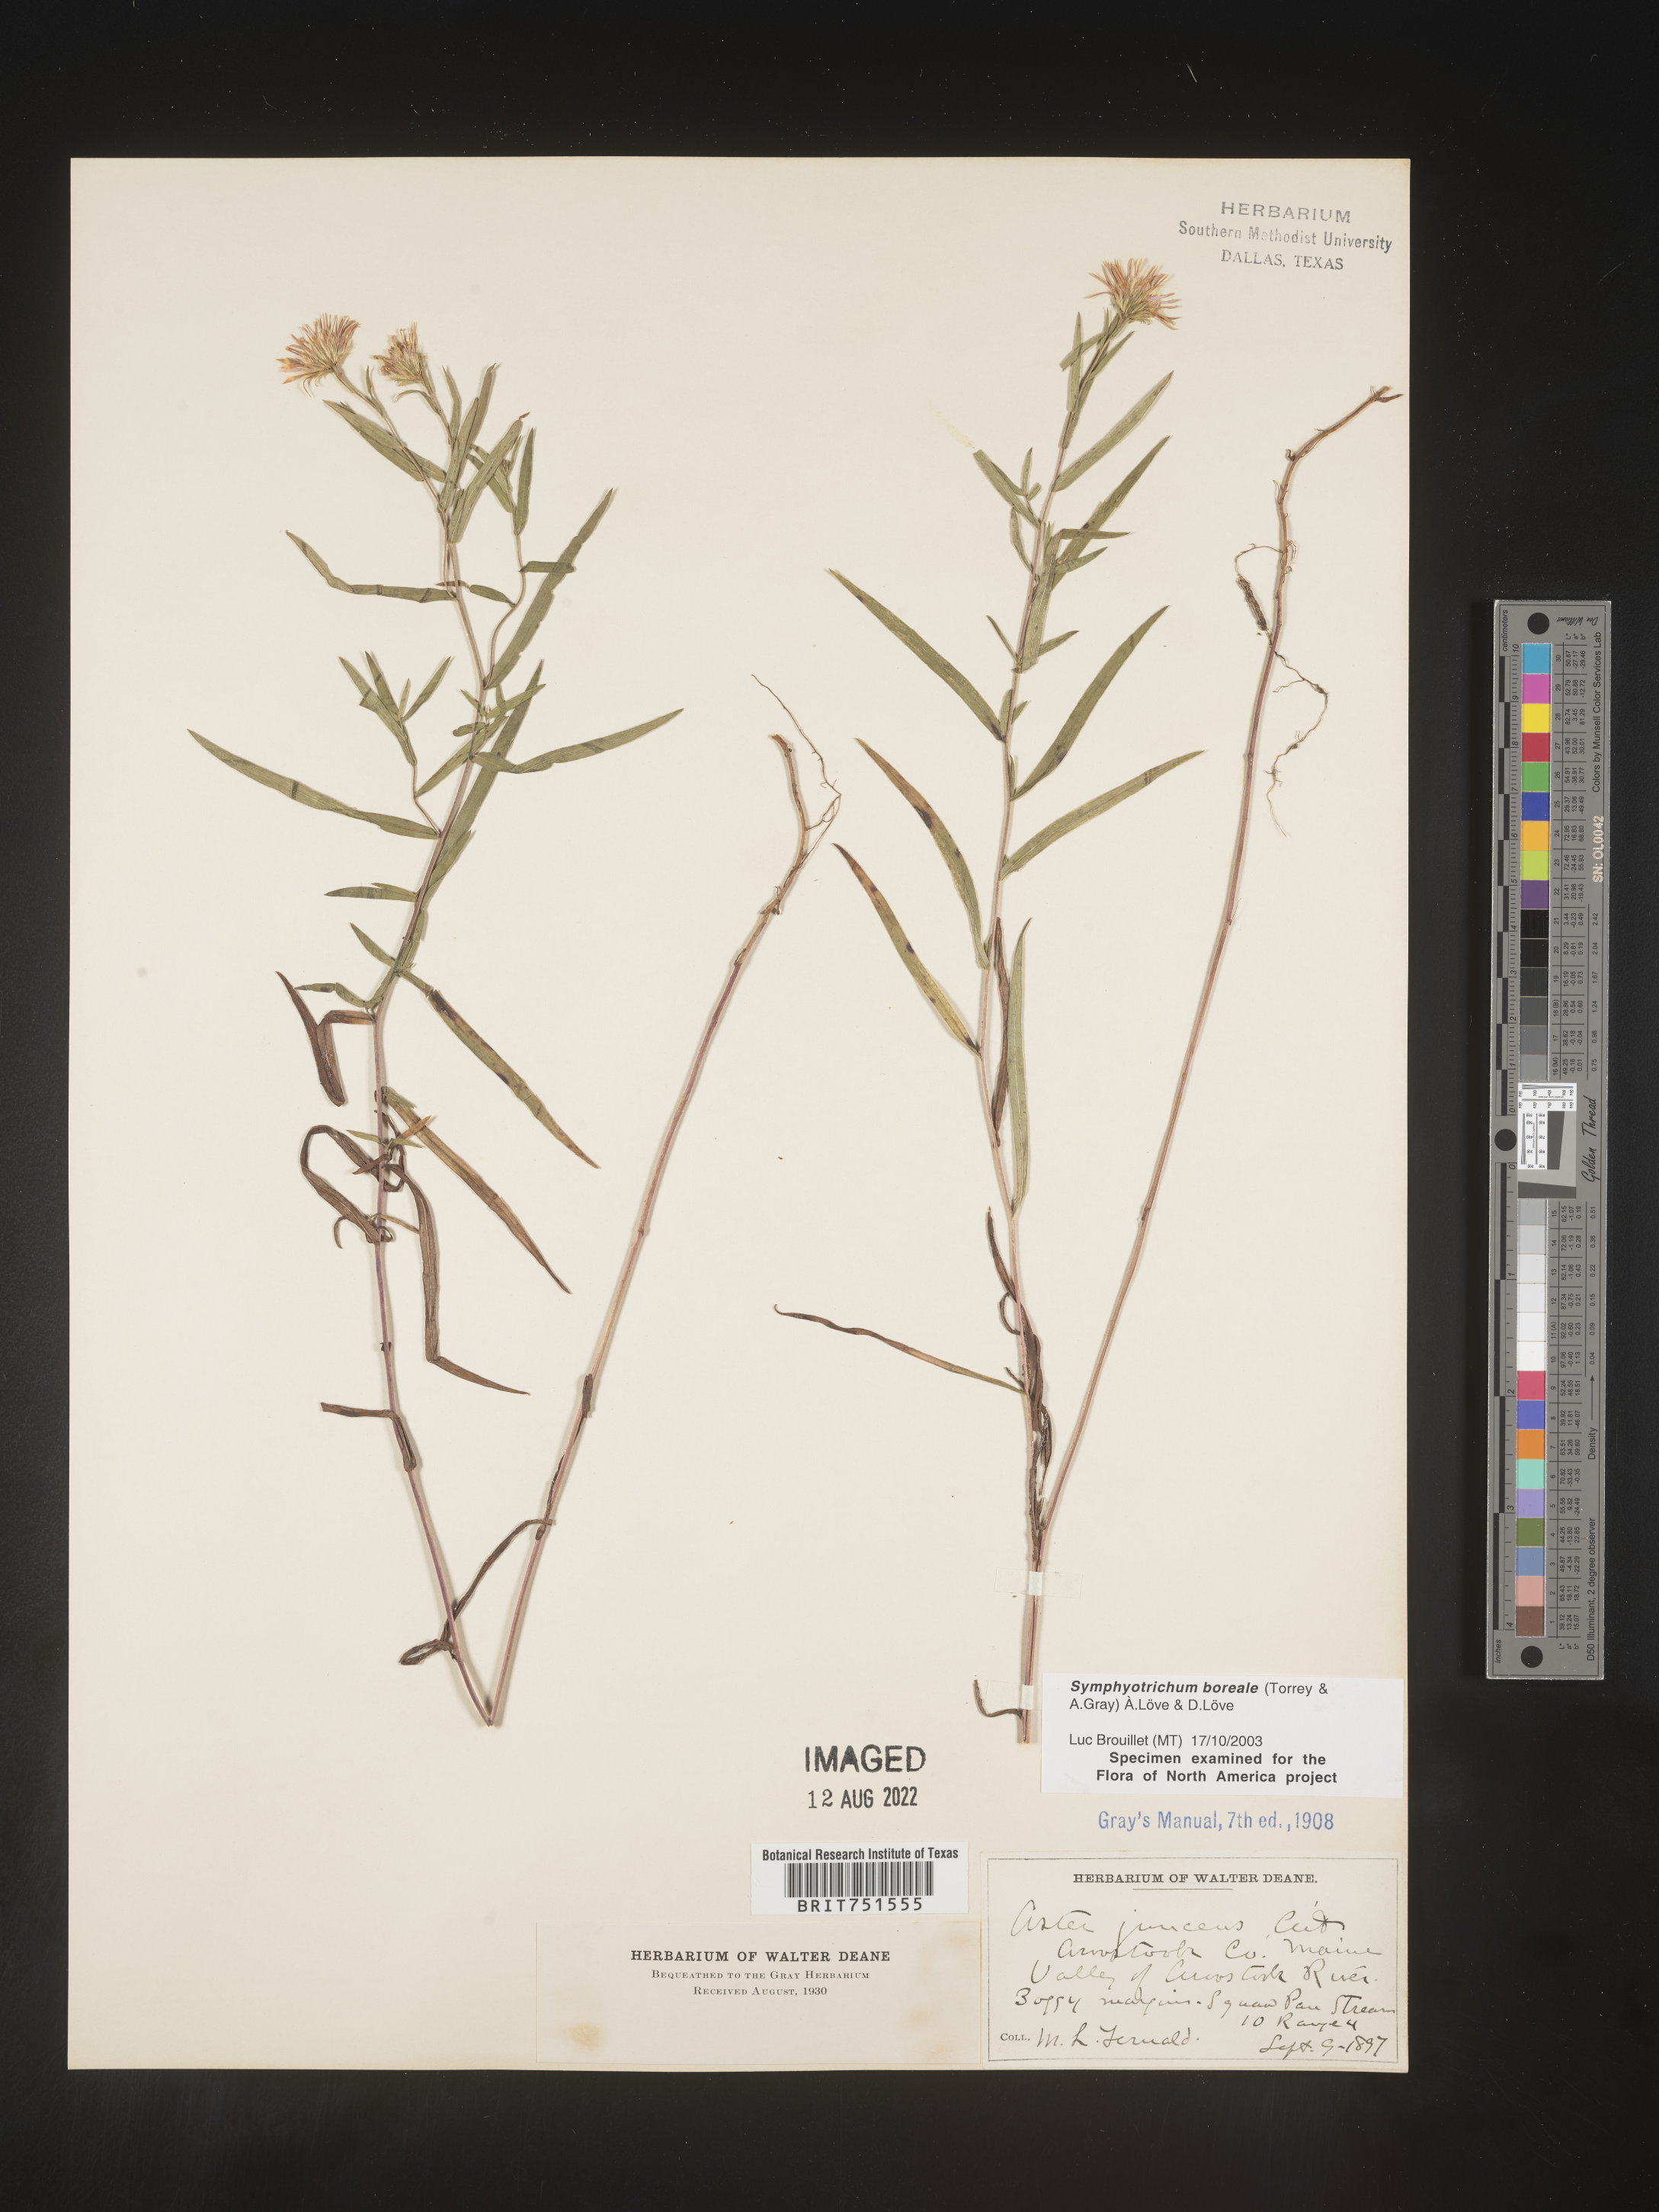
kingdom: Plantae
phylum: Tracheophyta
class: Magnoliopsida
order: Asterales
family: Asteraceae
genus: Symphyotrichum
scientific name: Symphyotrichum boreale
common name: Northern bog aster
